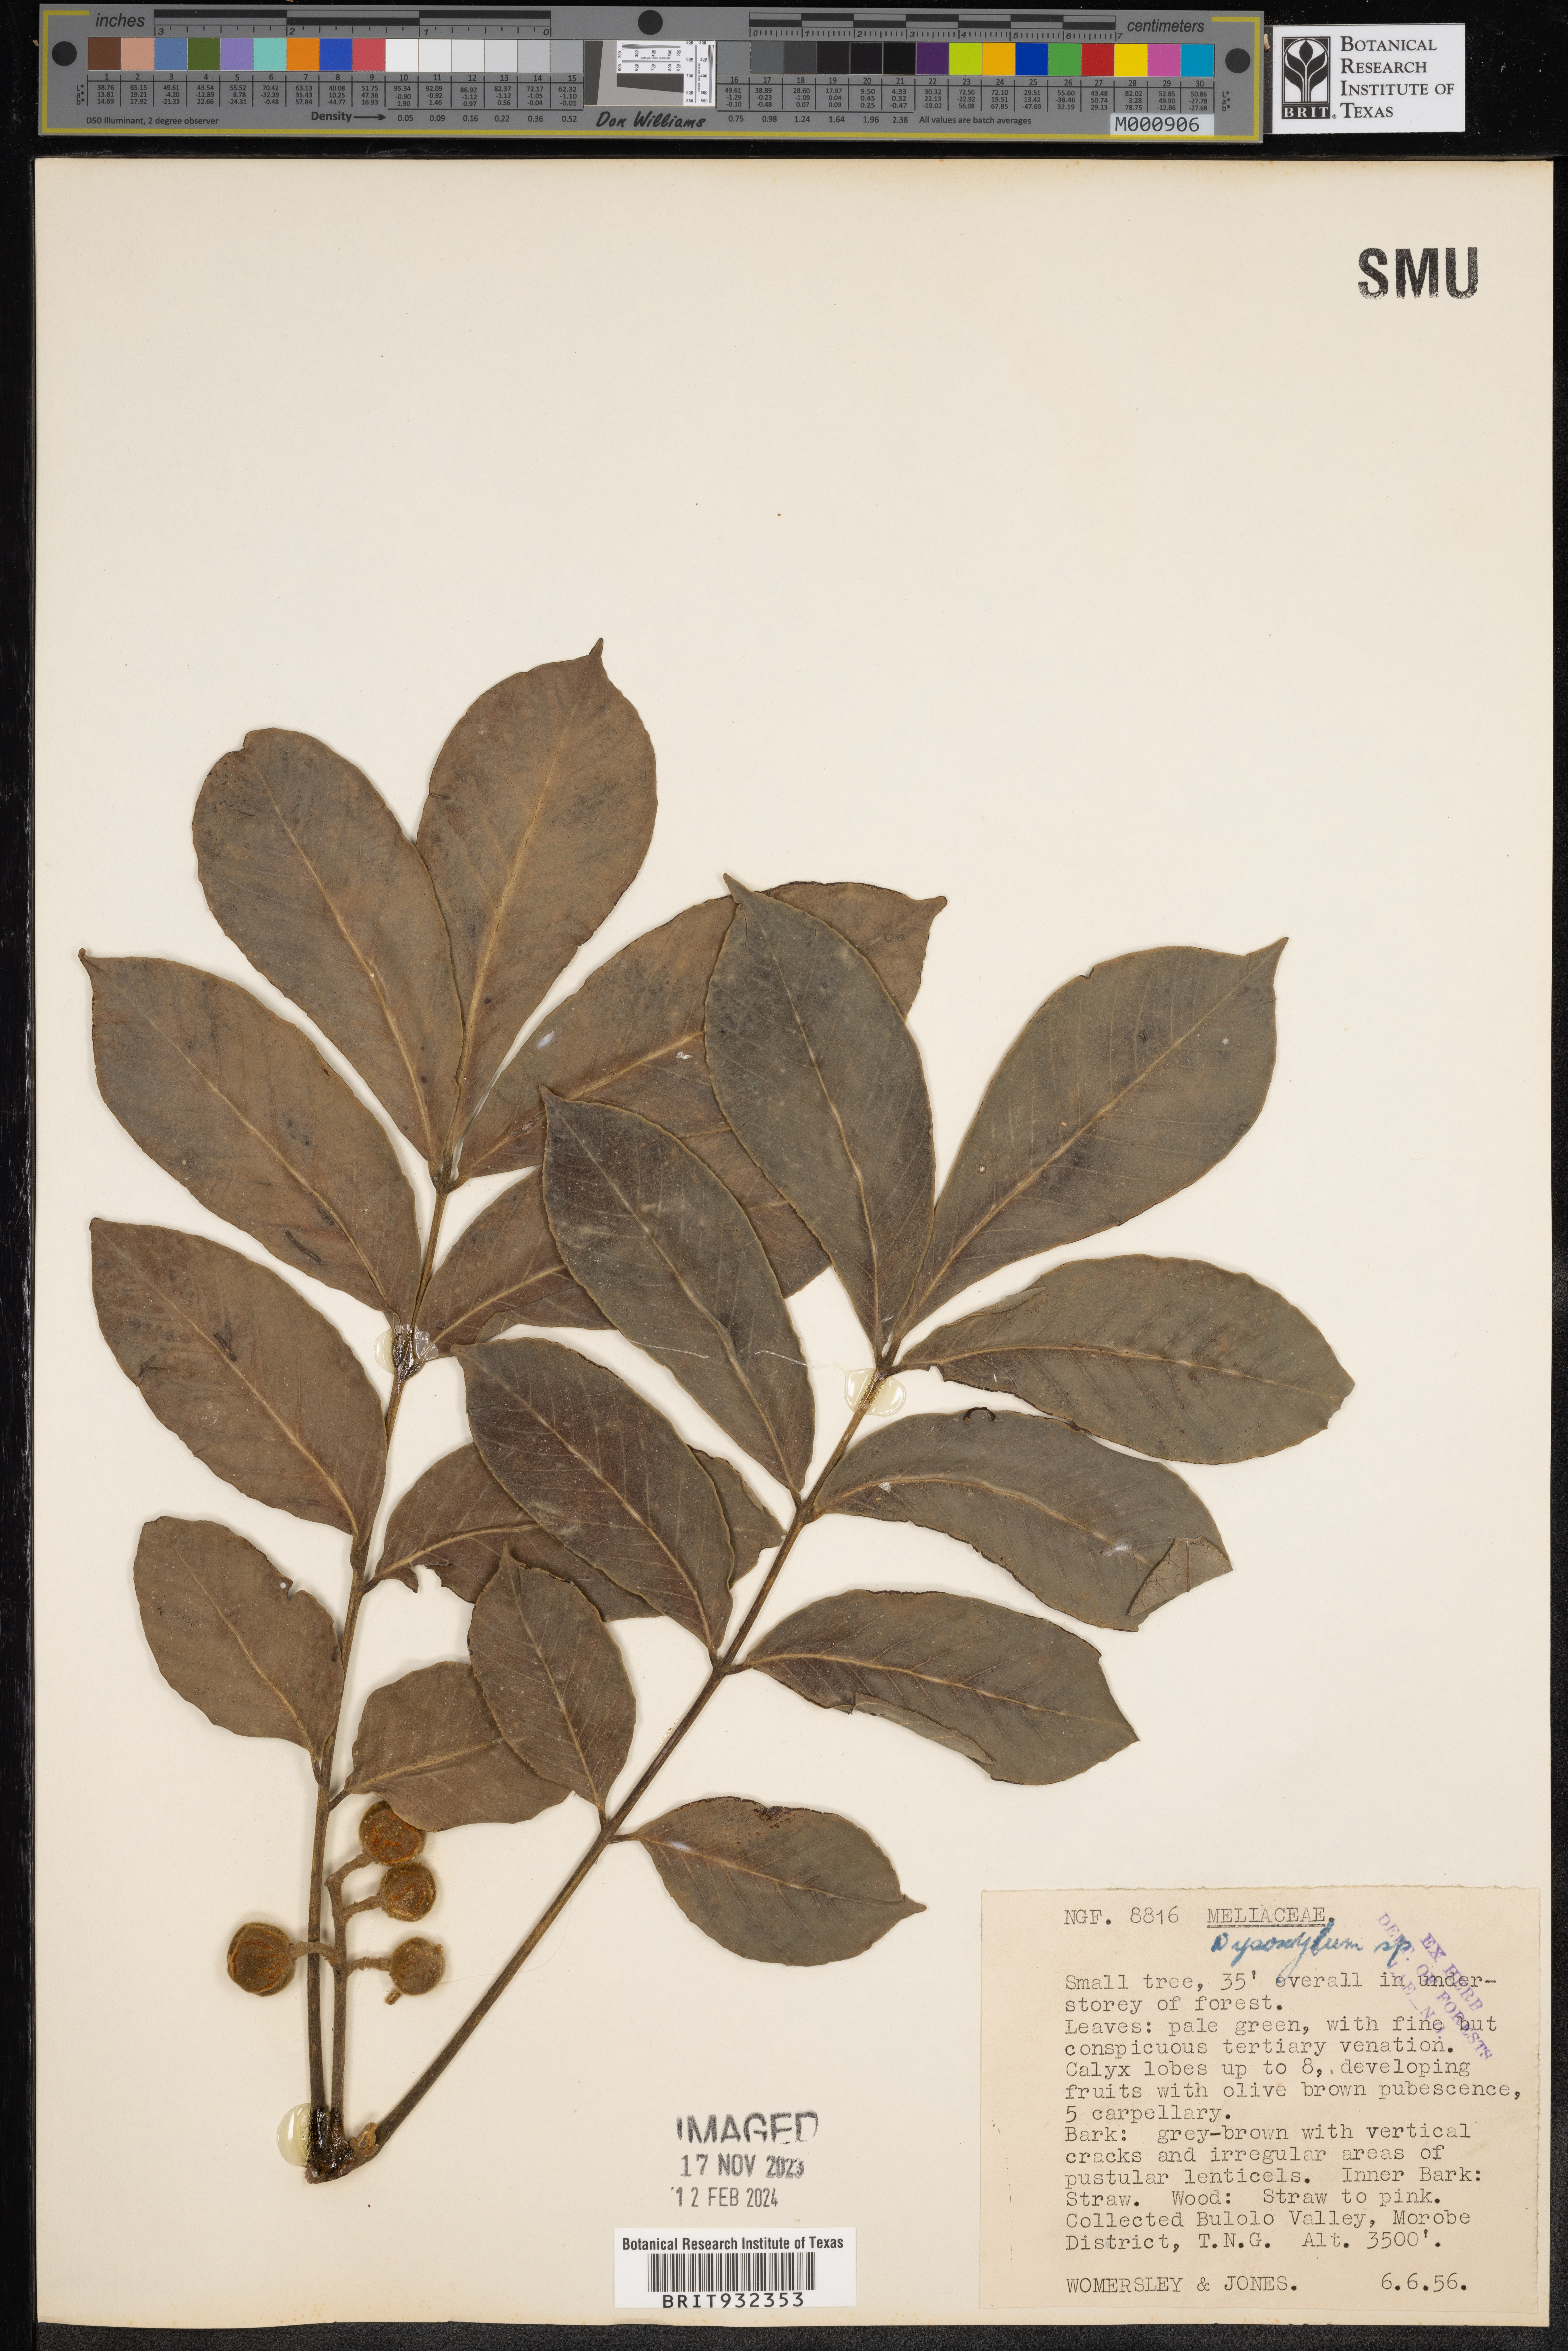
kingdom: Plantae
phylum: Tracheophyta
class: Magnoliopsida
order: Sapindales
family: Meliaceae
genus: Dysoxylum
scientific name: Dysoxylum
